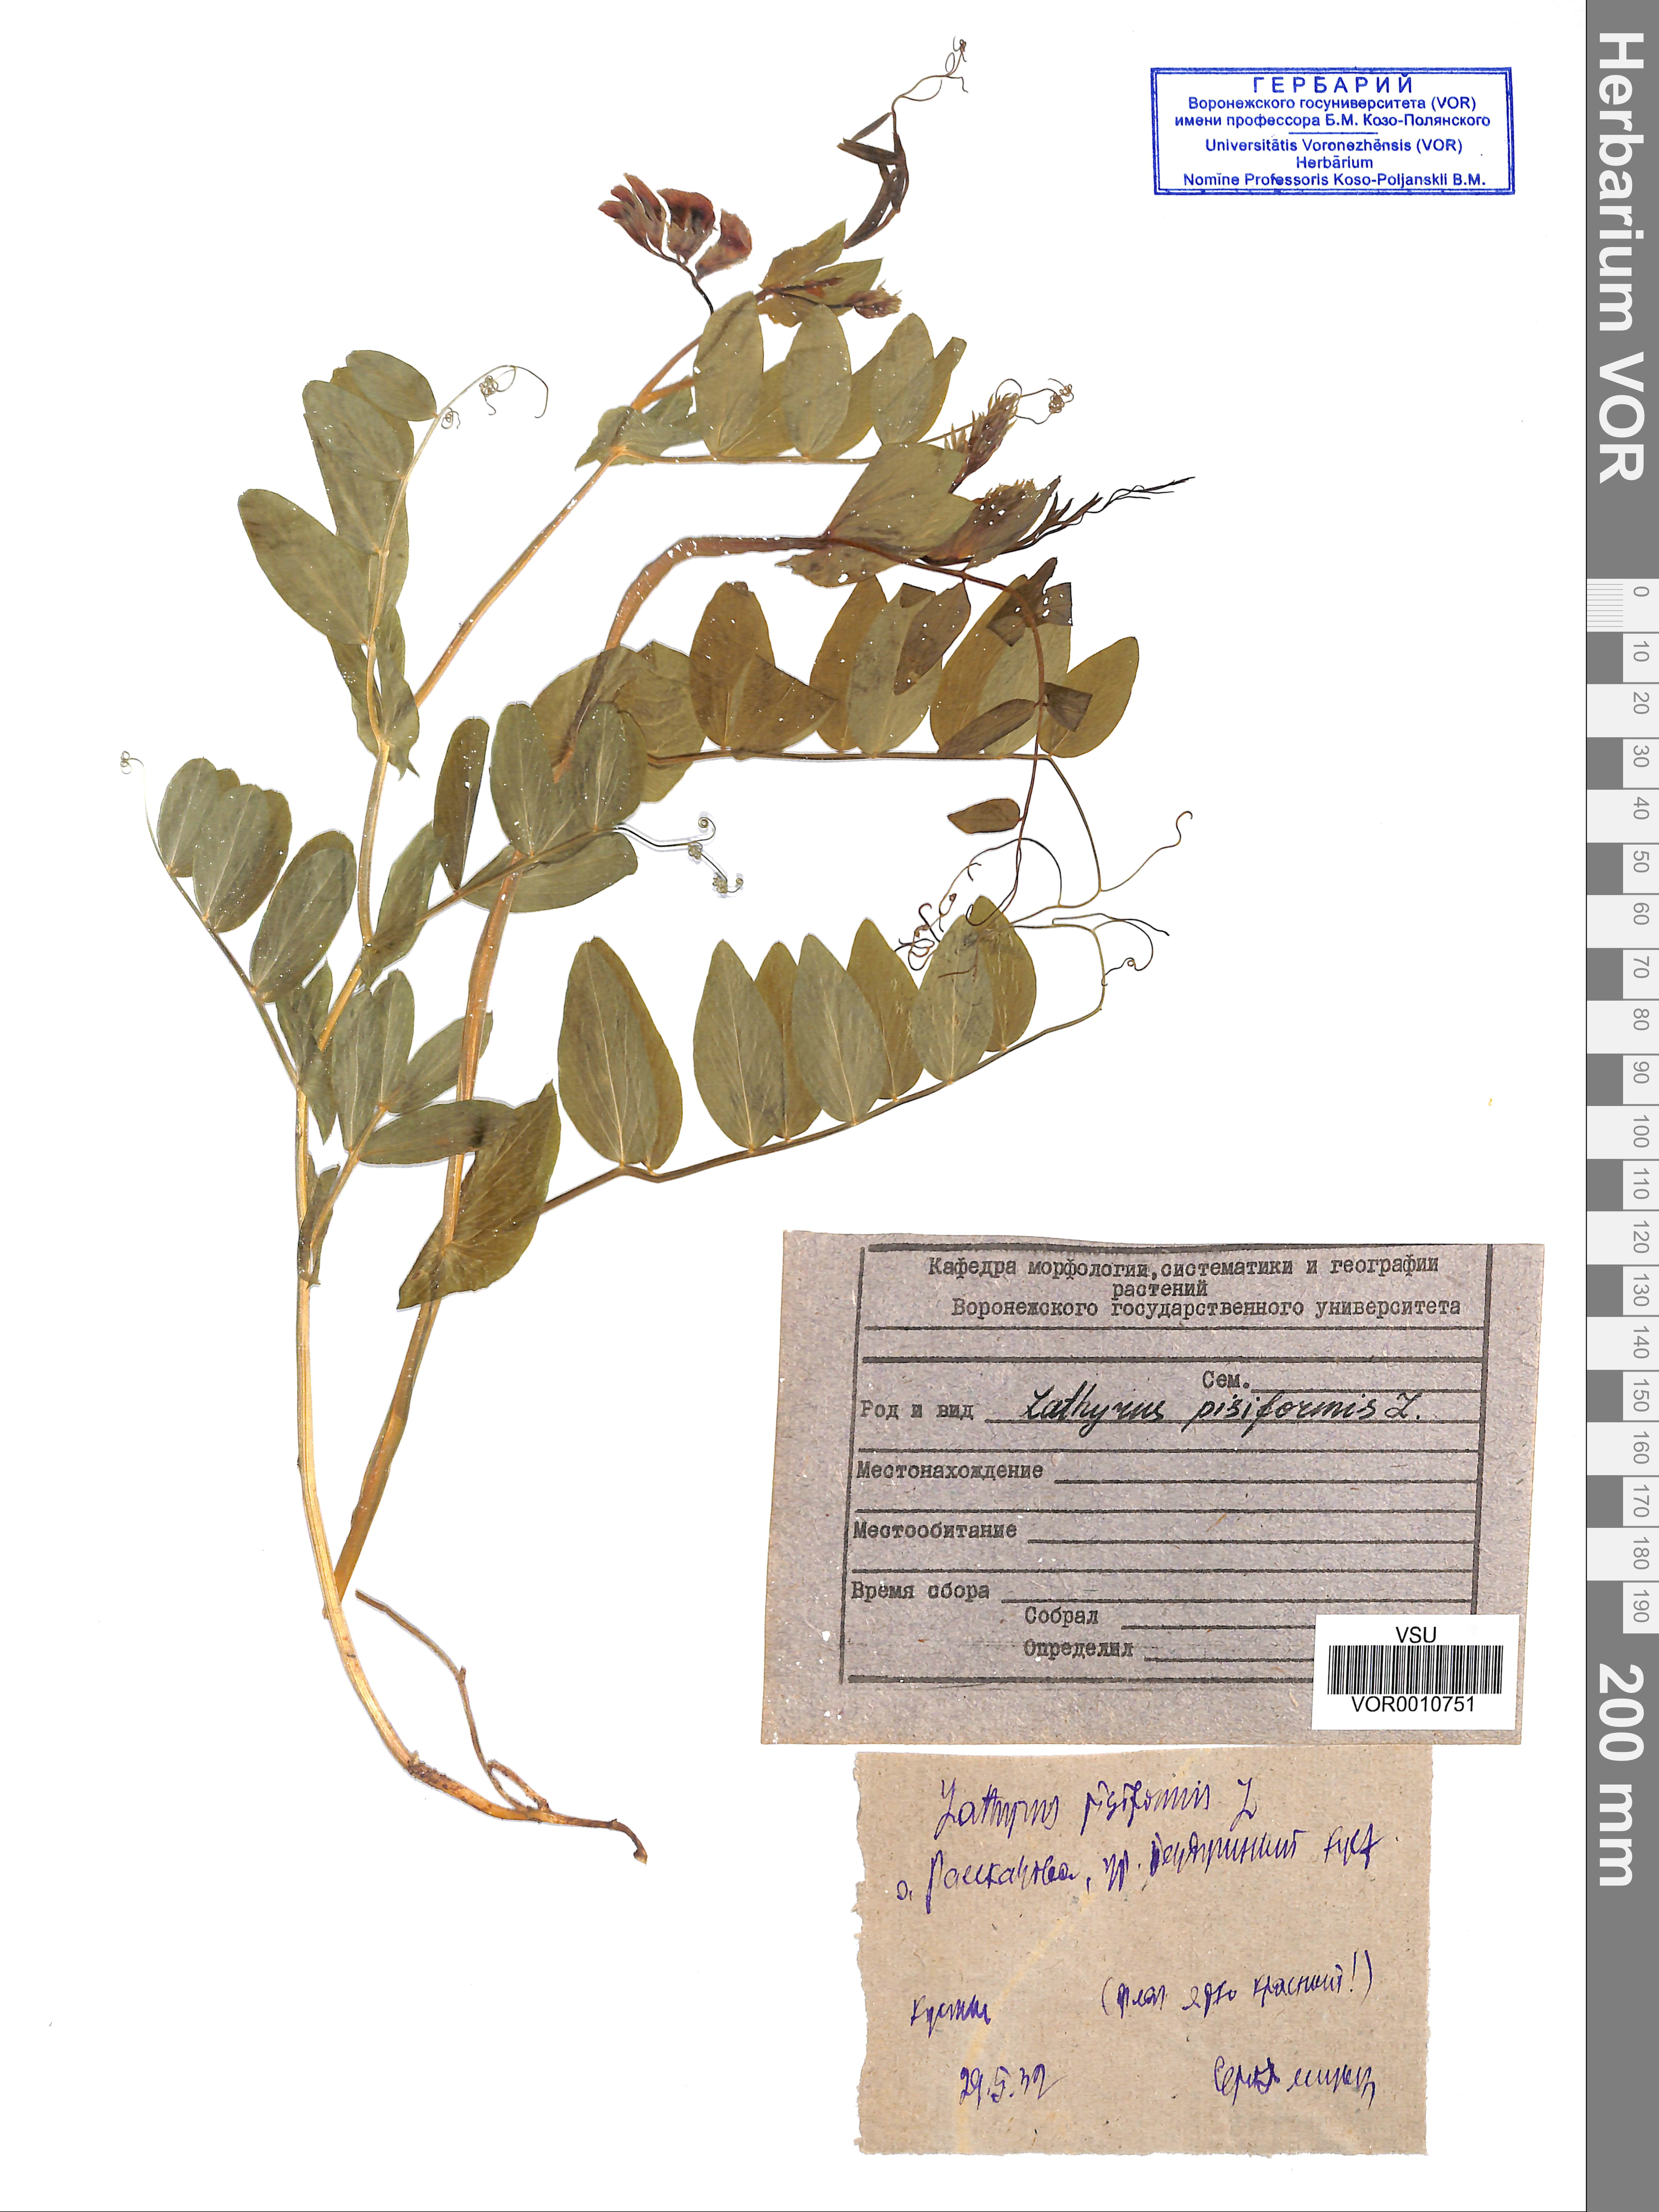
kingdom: Plantae
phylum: Tracheophyta
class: Magnoliopsida
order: Fabales
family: Fabaceae
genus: Lathyrus
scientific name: Lathyrus pisiformis
